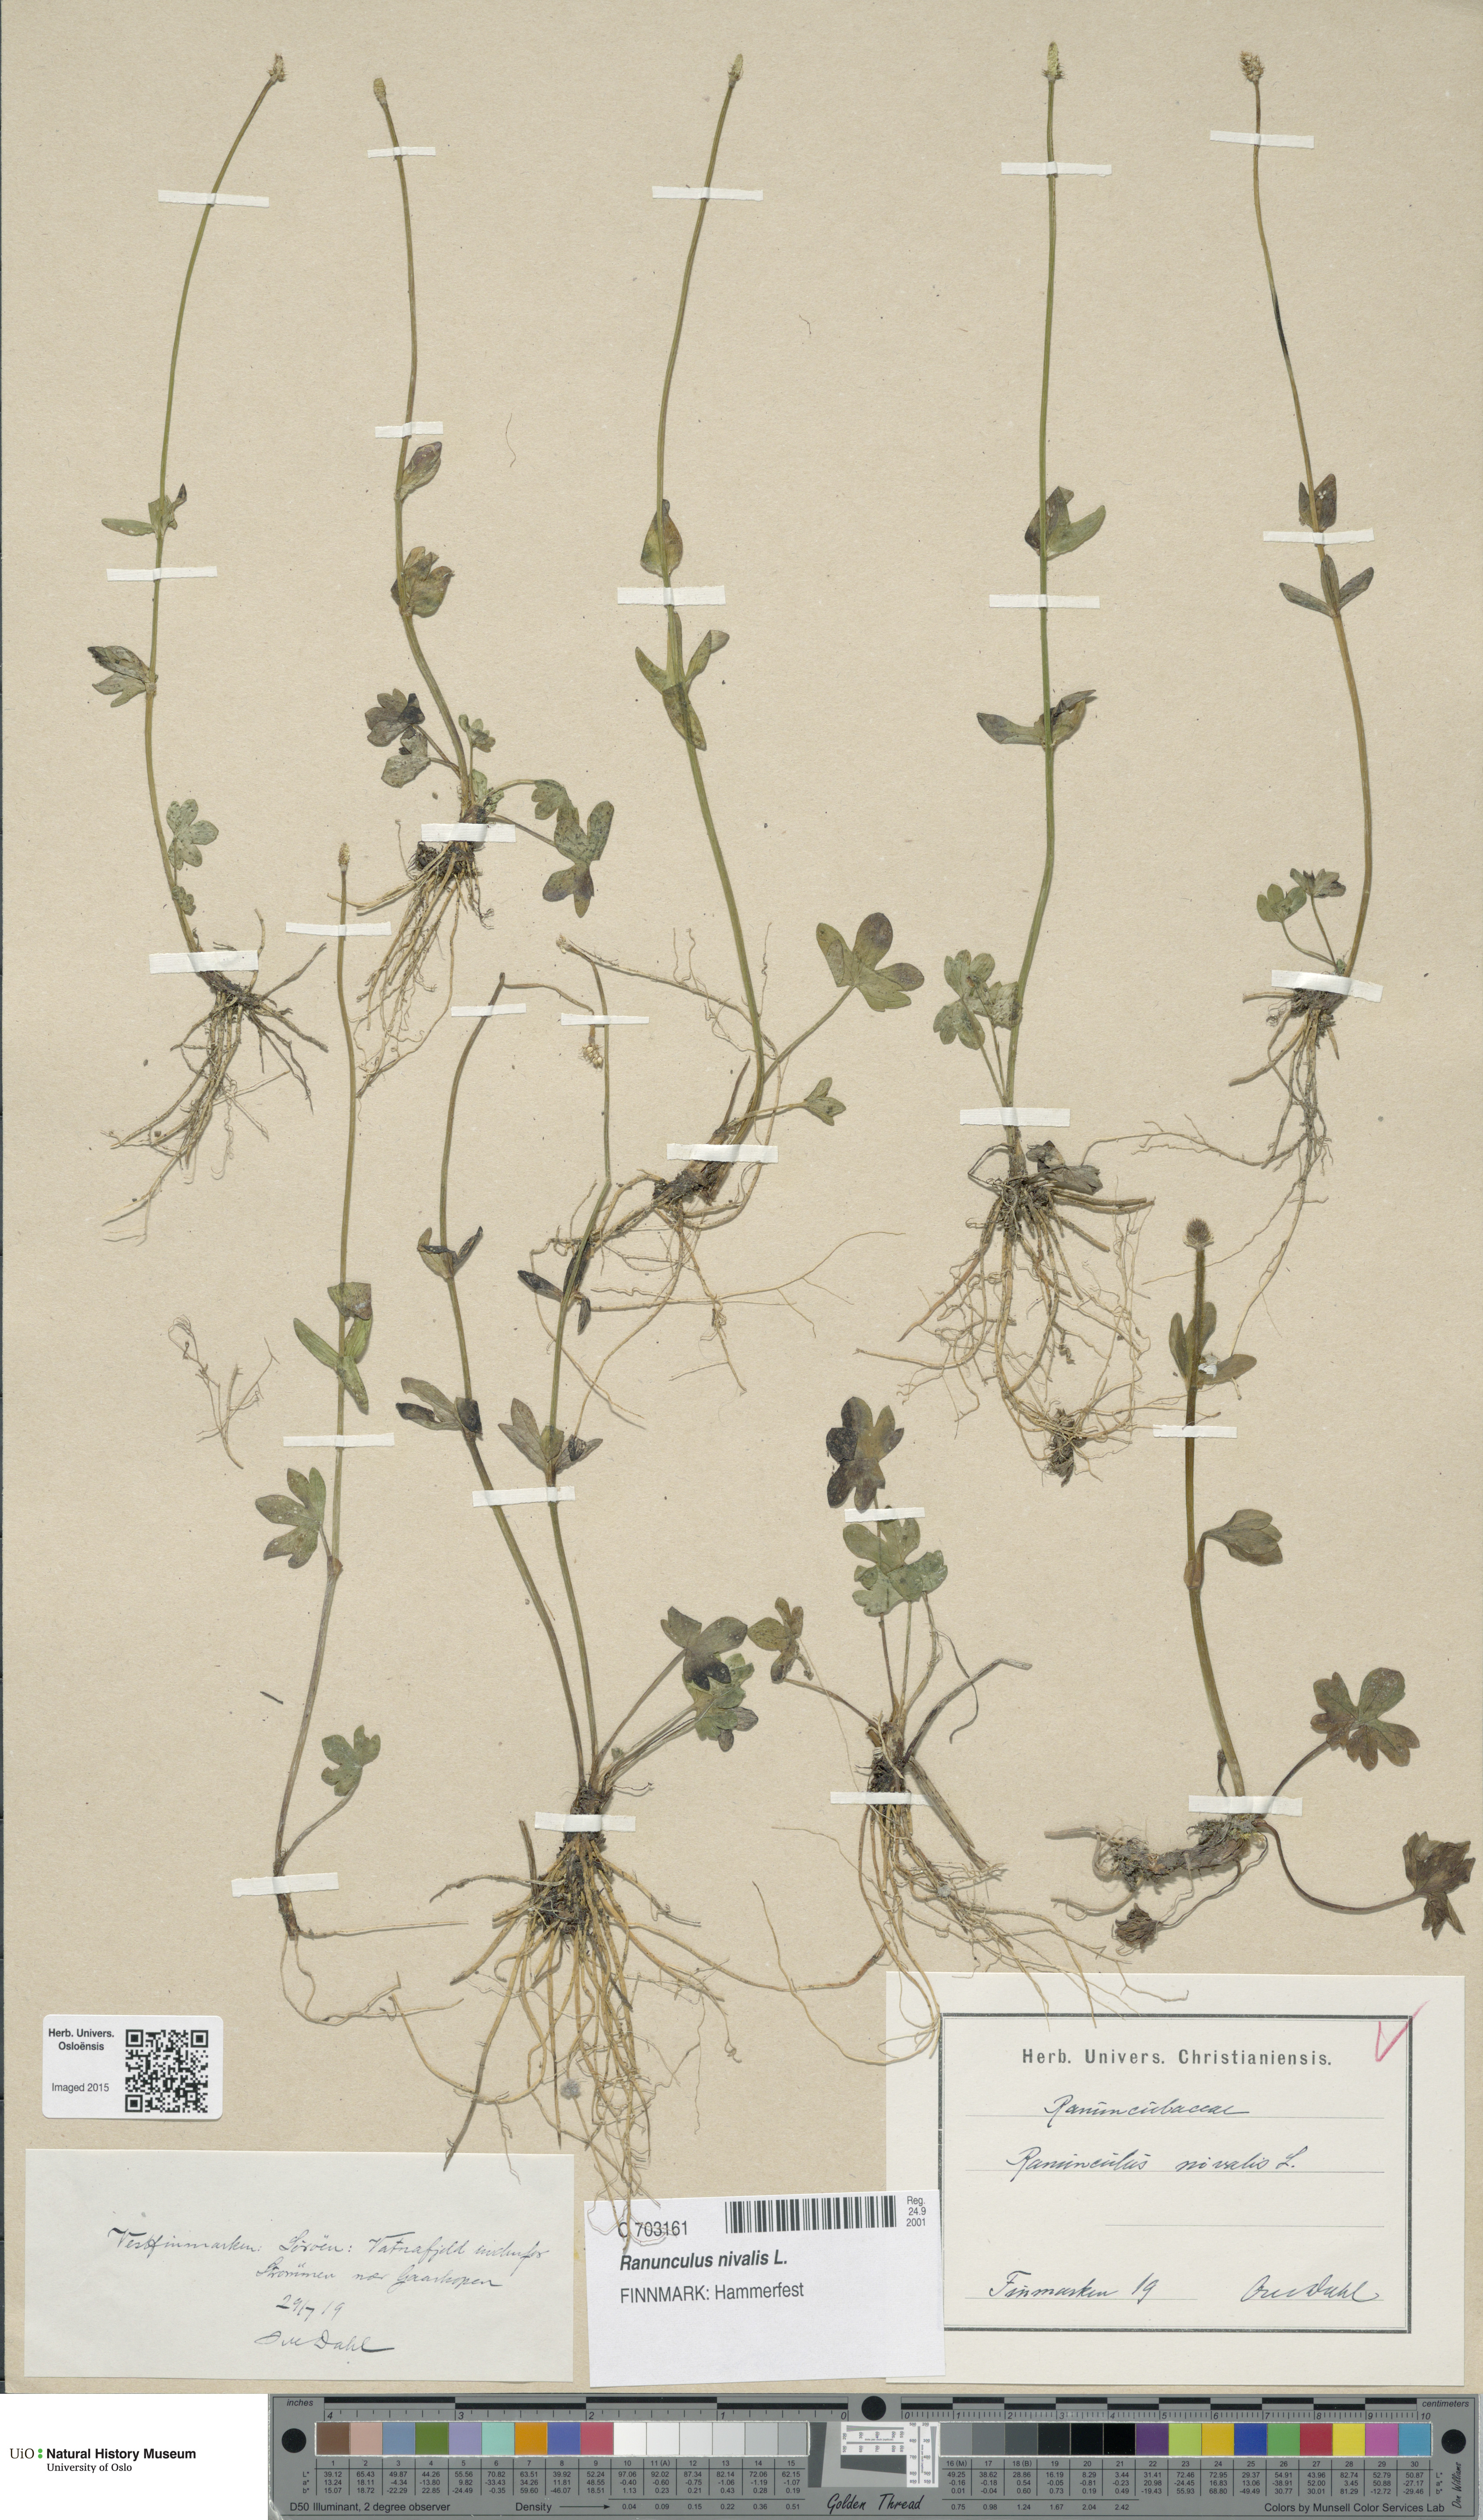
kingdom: Plantae
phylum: Tracheophyta
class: Magnoliopsida
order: Ranunculales
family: Ranunculaceae
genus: Ranunculus
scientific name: Ranunculus nivalis
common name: Snow buttercup
